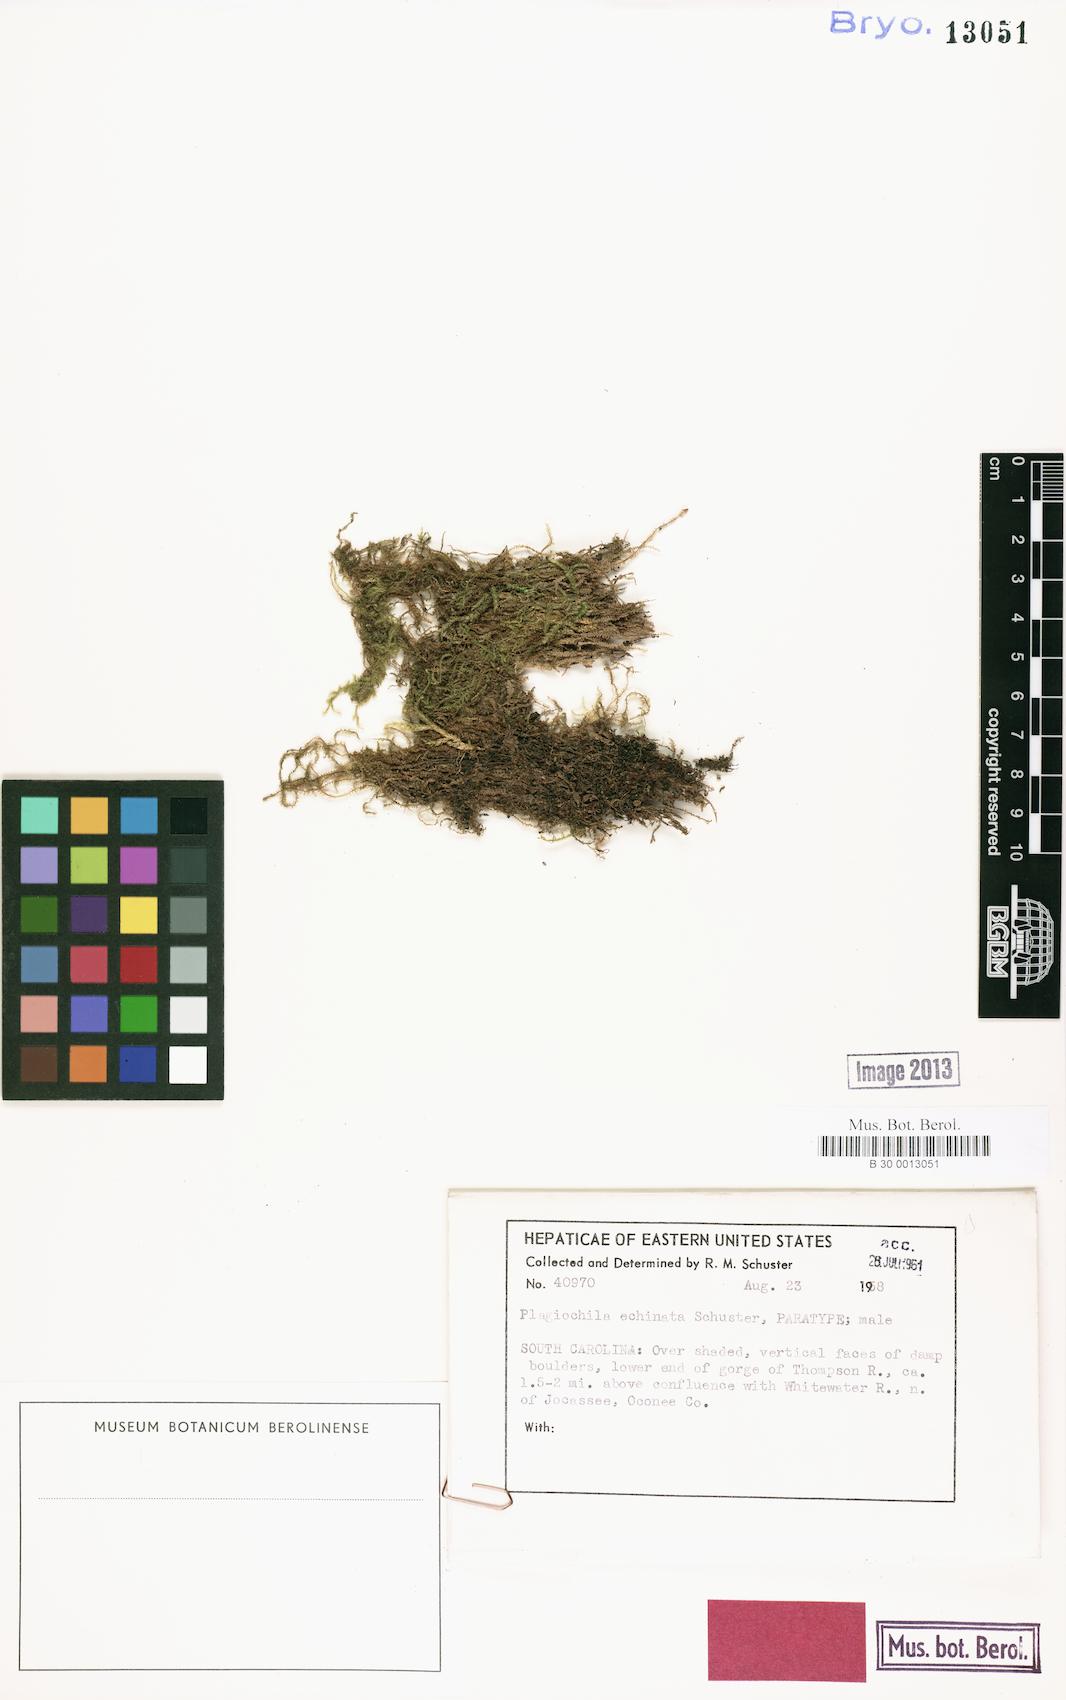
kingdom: Plantae
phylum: Marchantiophyta
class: Jungermanniopsida
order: Jungermanniales
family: Plagiochilaceae
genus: Plagiochila
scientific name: Plagiochila echinata
